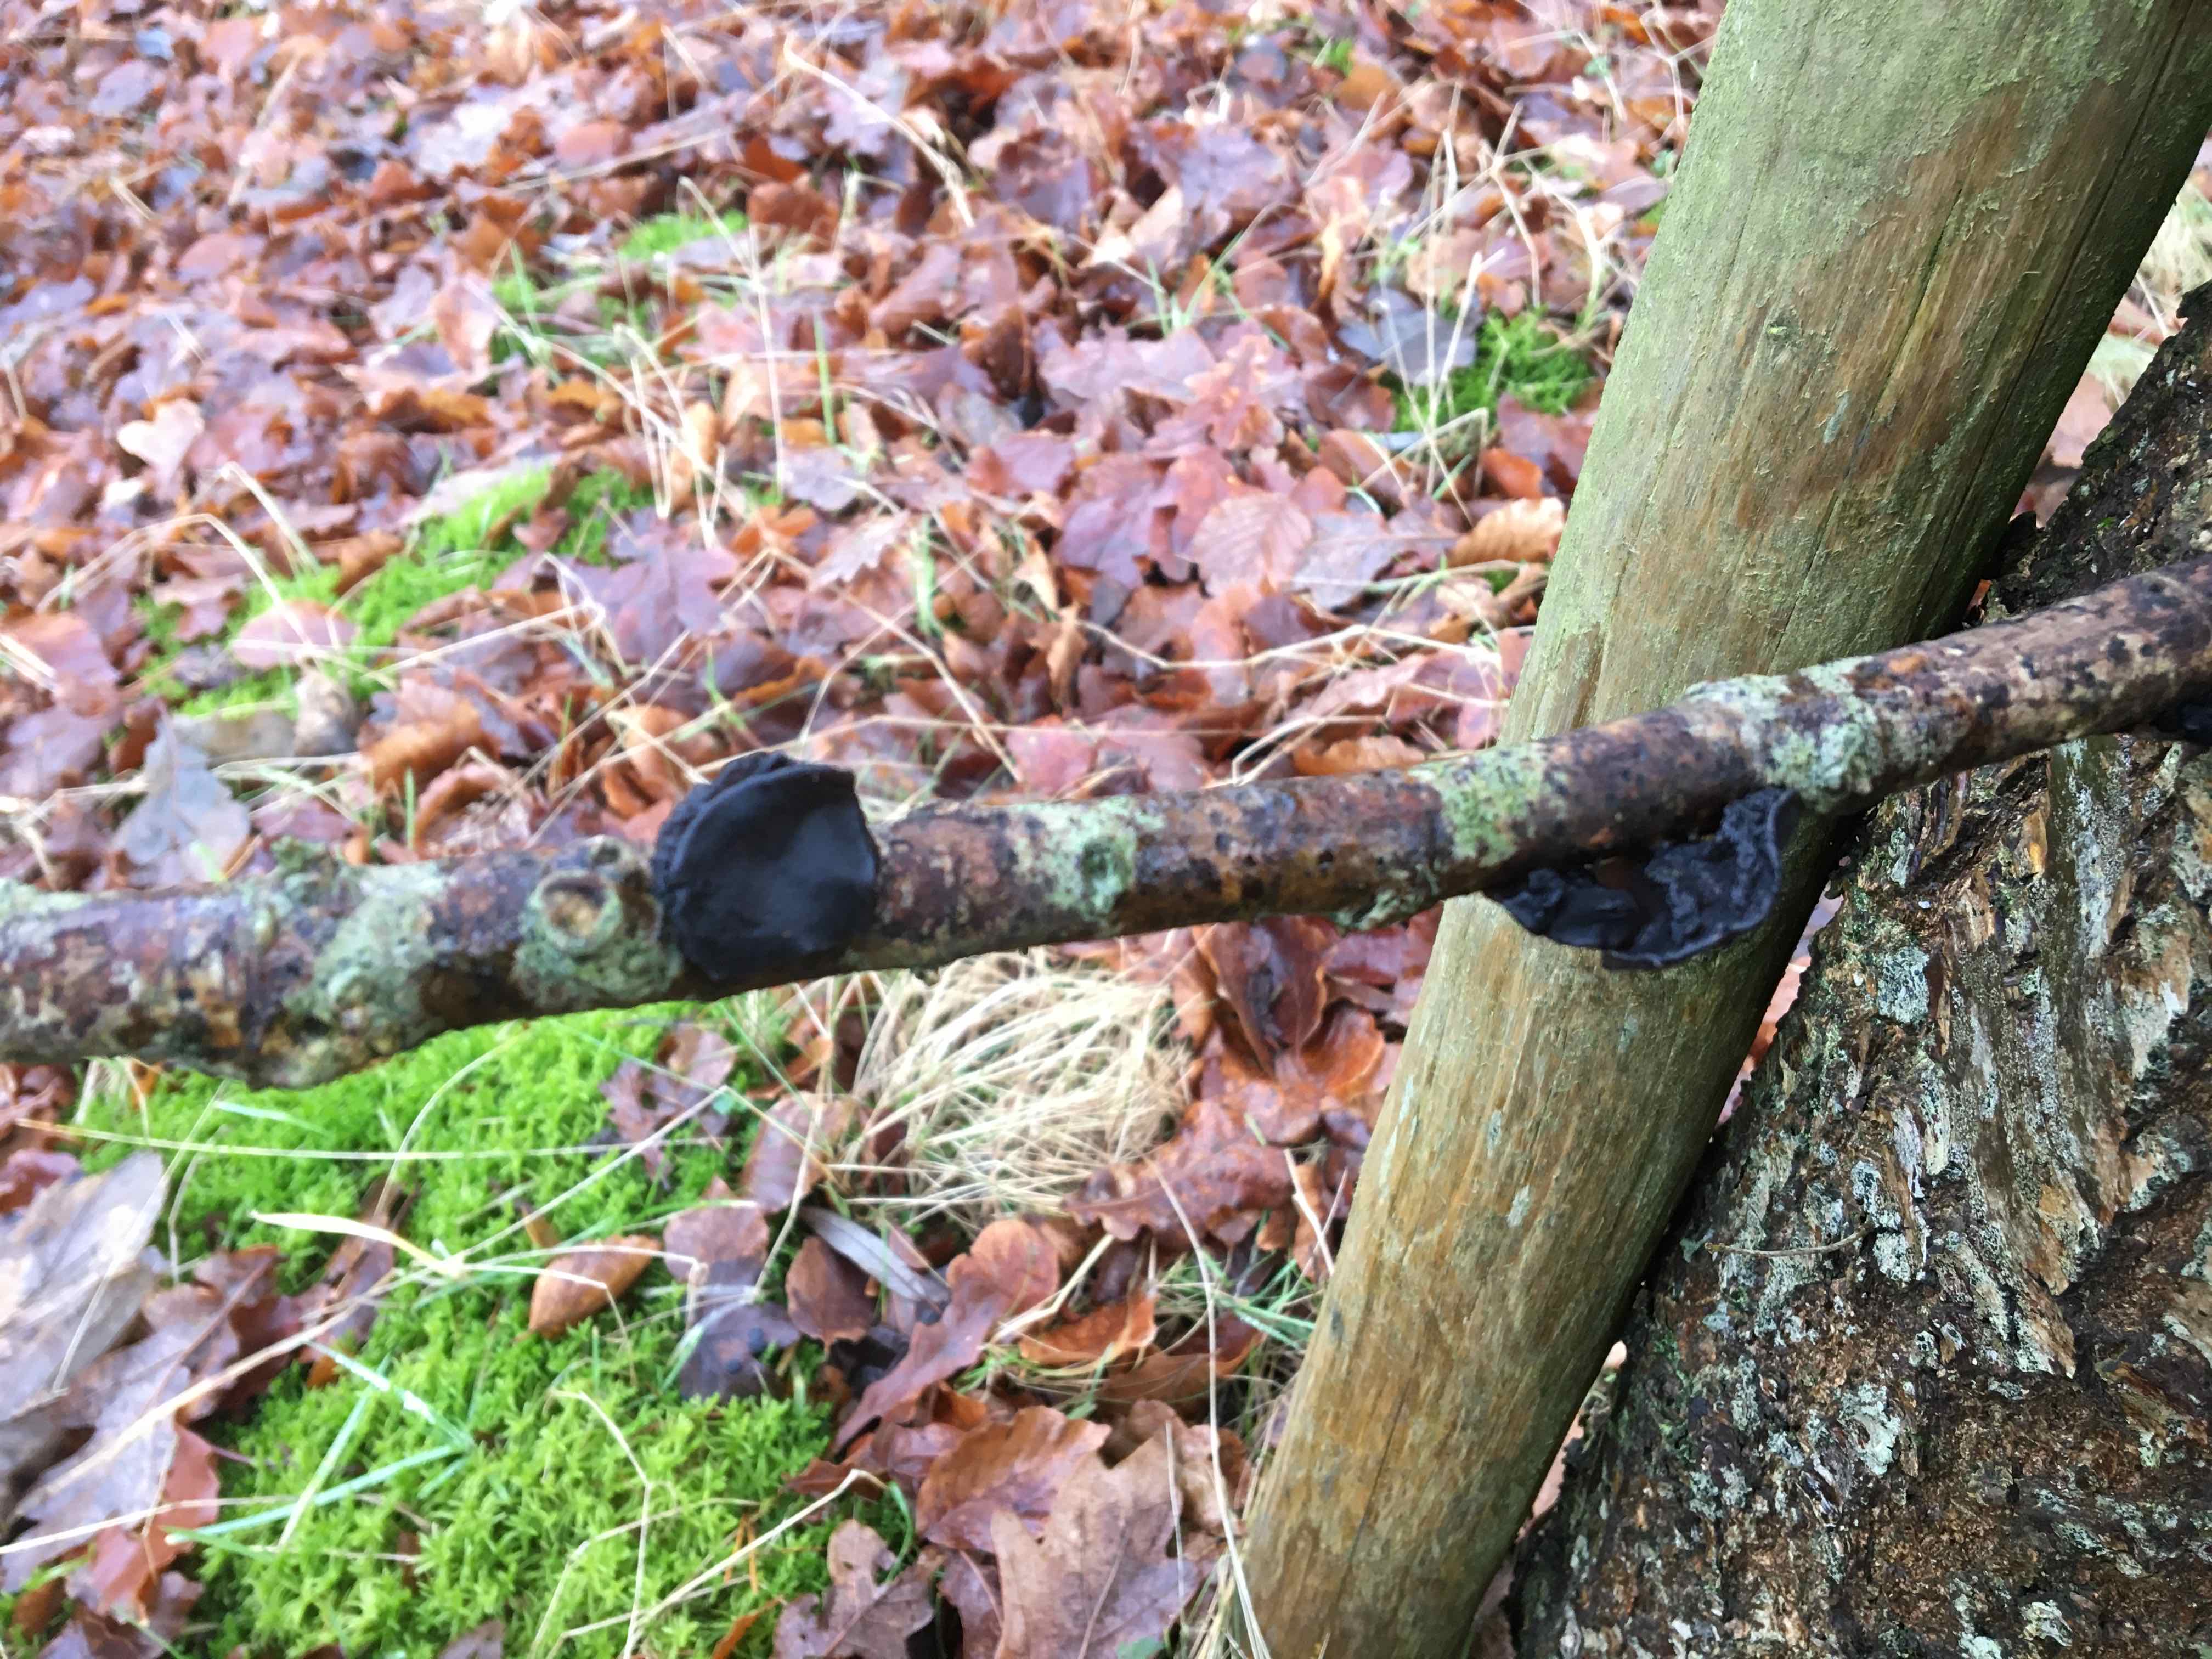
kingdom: Fungi
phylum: Basidiomycota
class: Agaricomycetes
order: Auriculariales
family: Auriculariaceae
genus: Exidia
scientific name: Exidia glandulosa
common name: ege-bævretop
